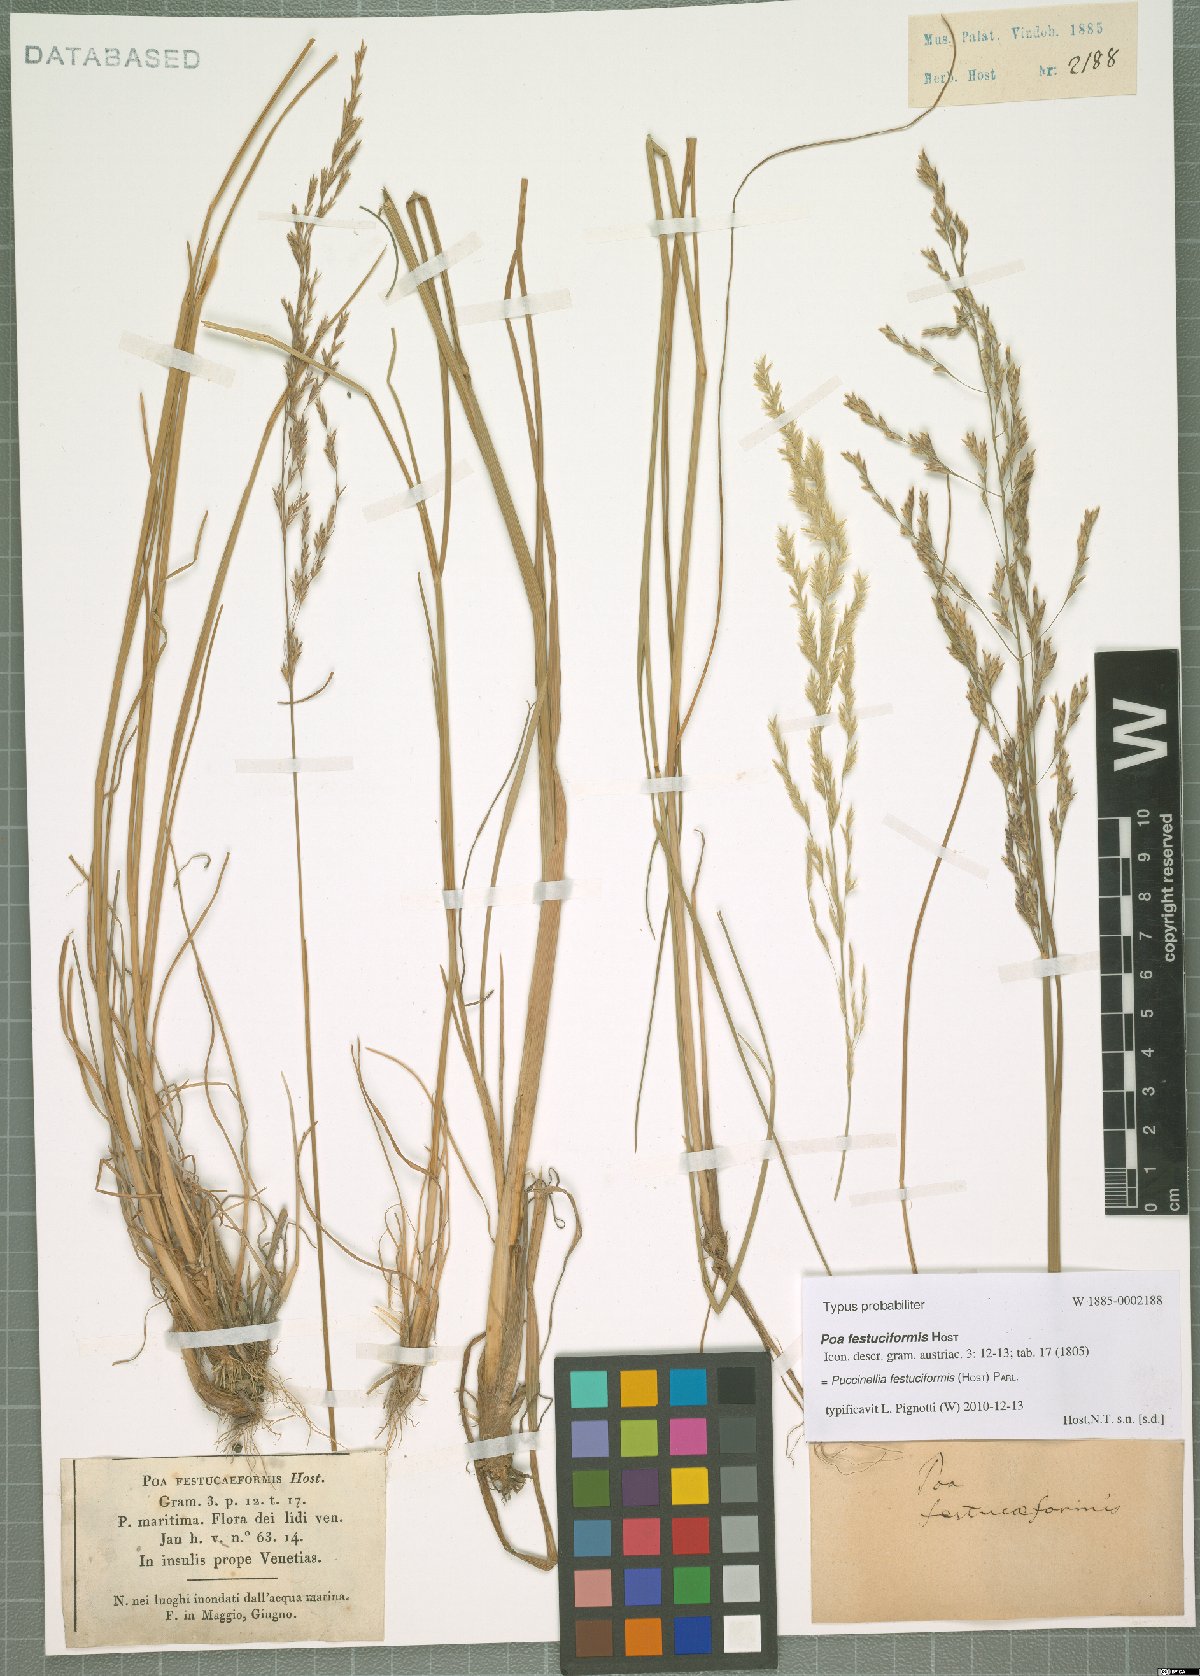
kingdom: Plantae
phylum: Tracheophyta
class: Liliopsida
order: Poales
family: Poaceae
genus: Puccinellia
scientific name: Puccinellia festuciformis
